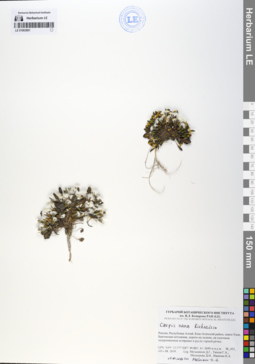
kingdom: Plantae
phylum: Tracheophyta
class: Magnoliopsida
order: Asterales
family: Asteraceae
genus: Askellia
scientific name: Askellia pygmaea
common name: Dwarf alpine hawksbeard
